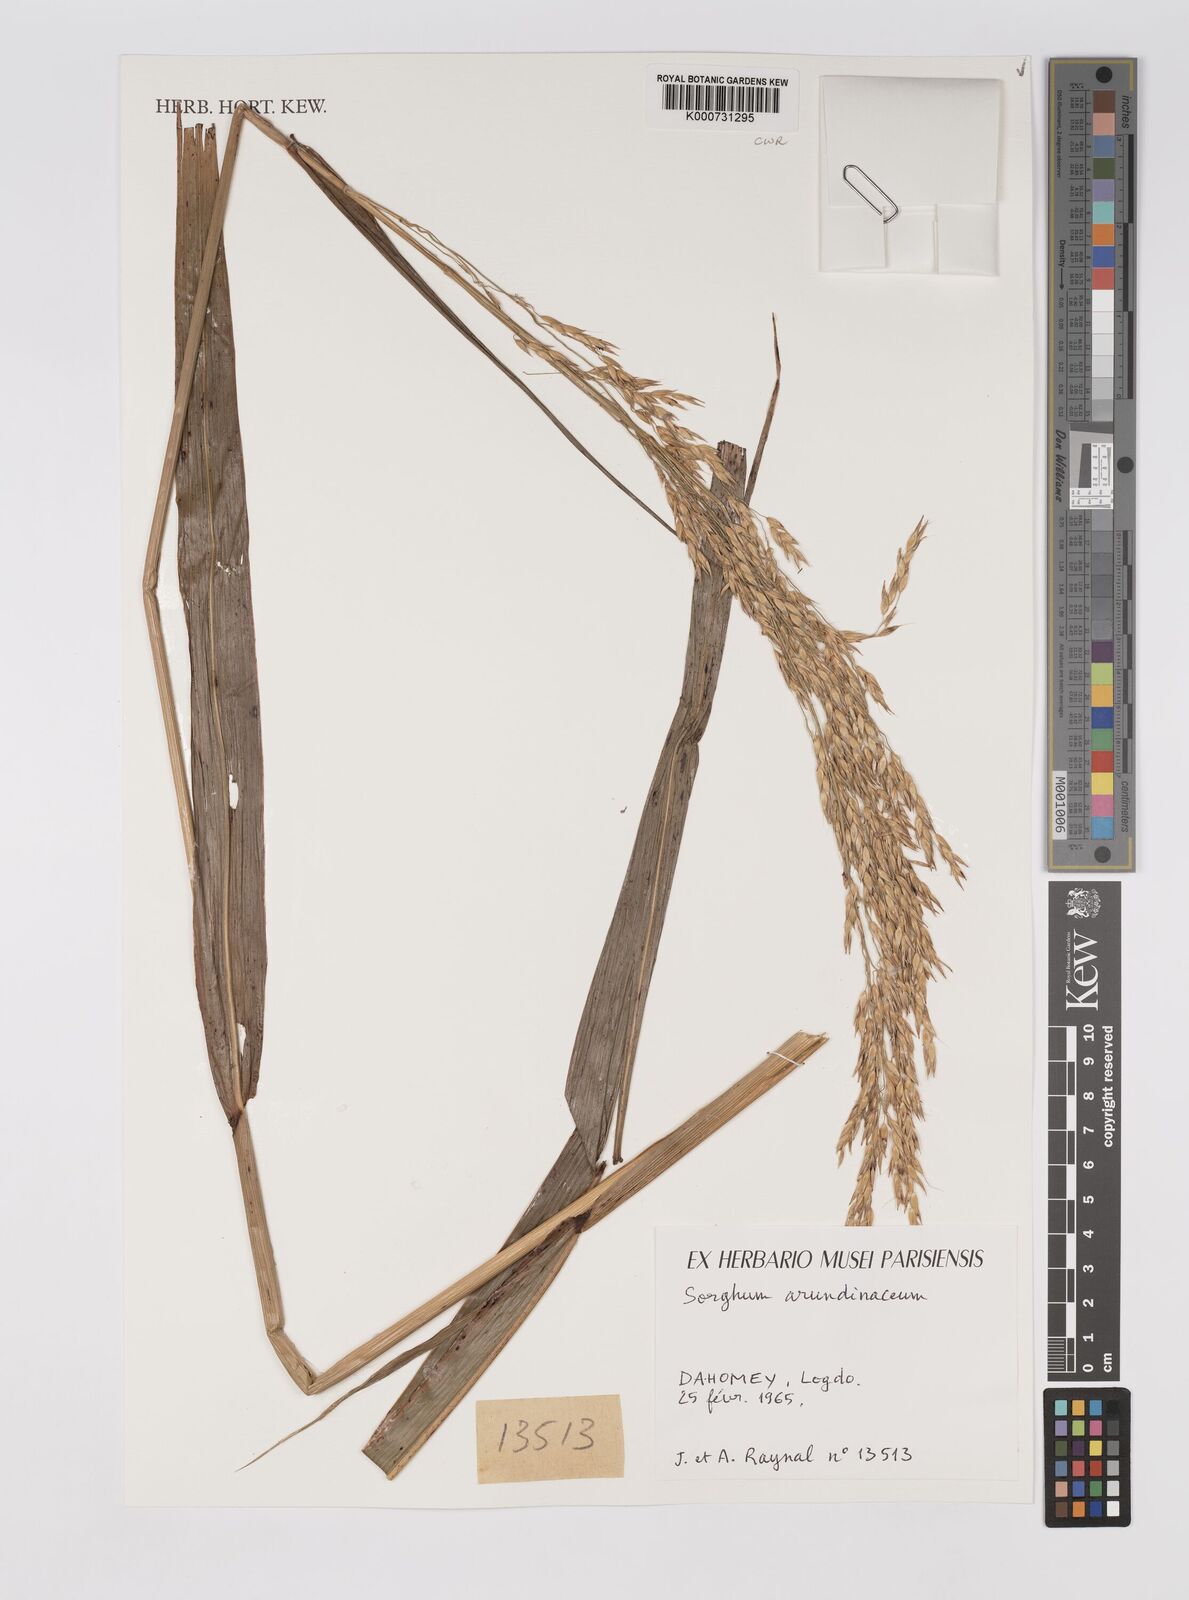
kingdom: Plantae
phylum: Tracheophyta
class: Liliopsida
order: Poales
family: Poaceae
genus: Sorghum
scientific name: Sorghum arundinaceum
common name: Sorghum
